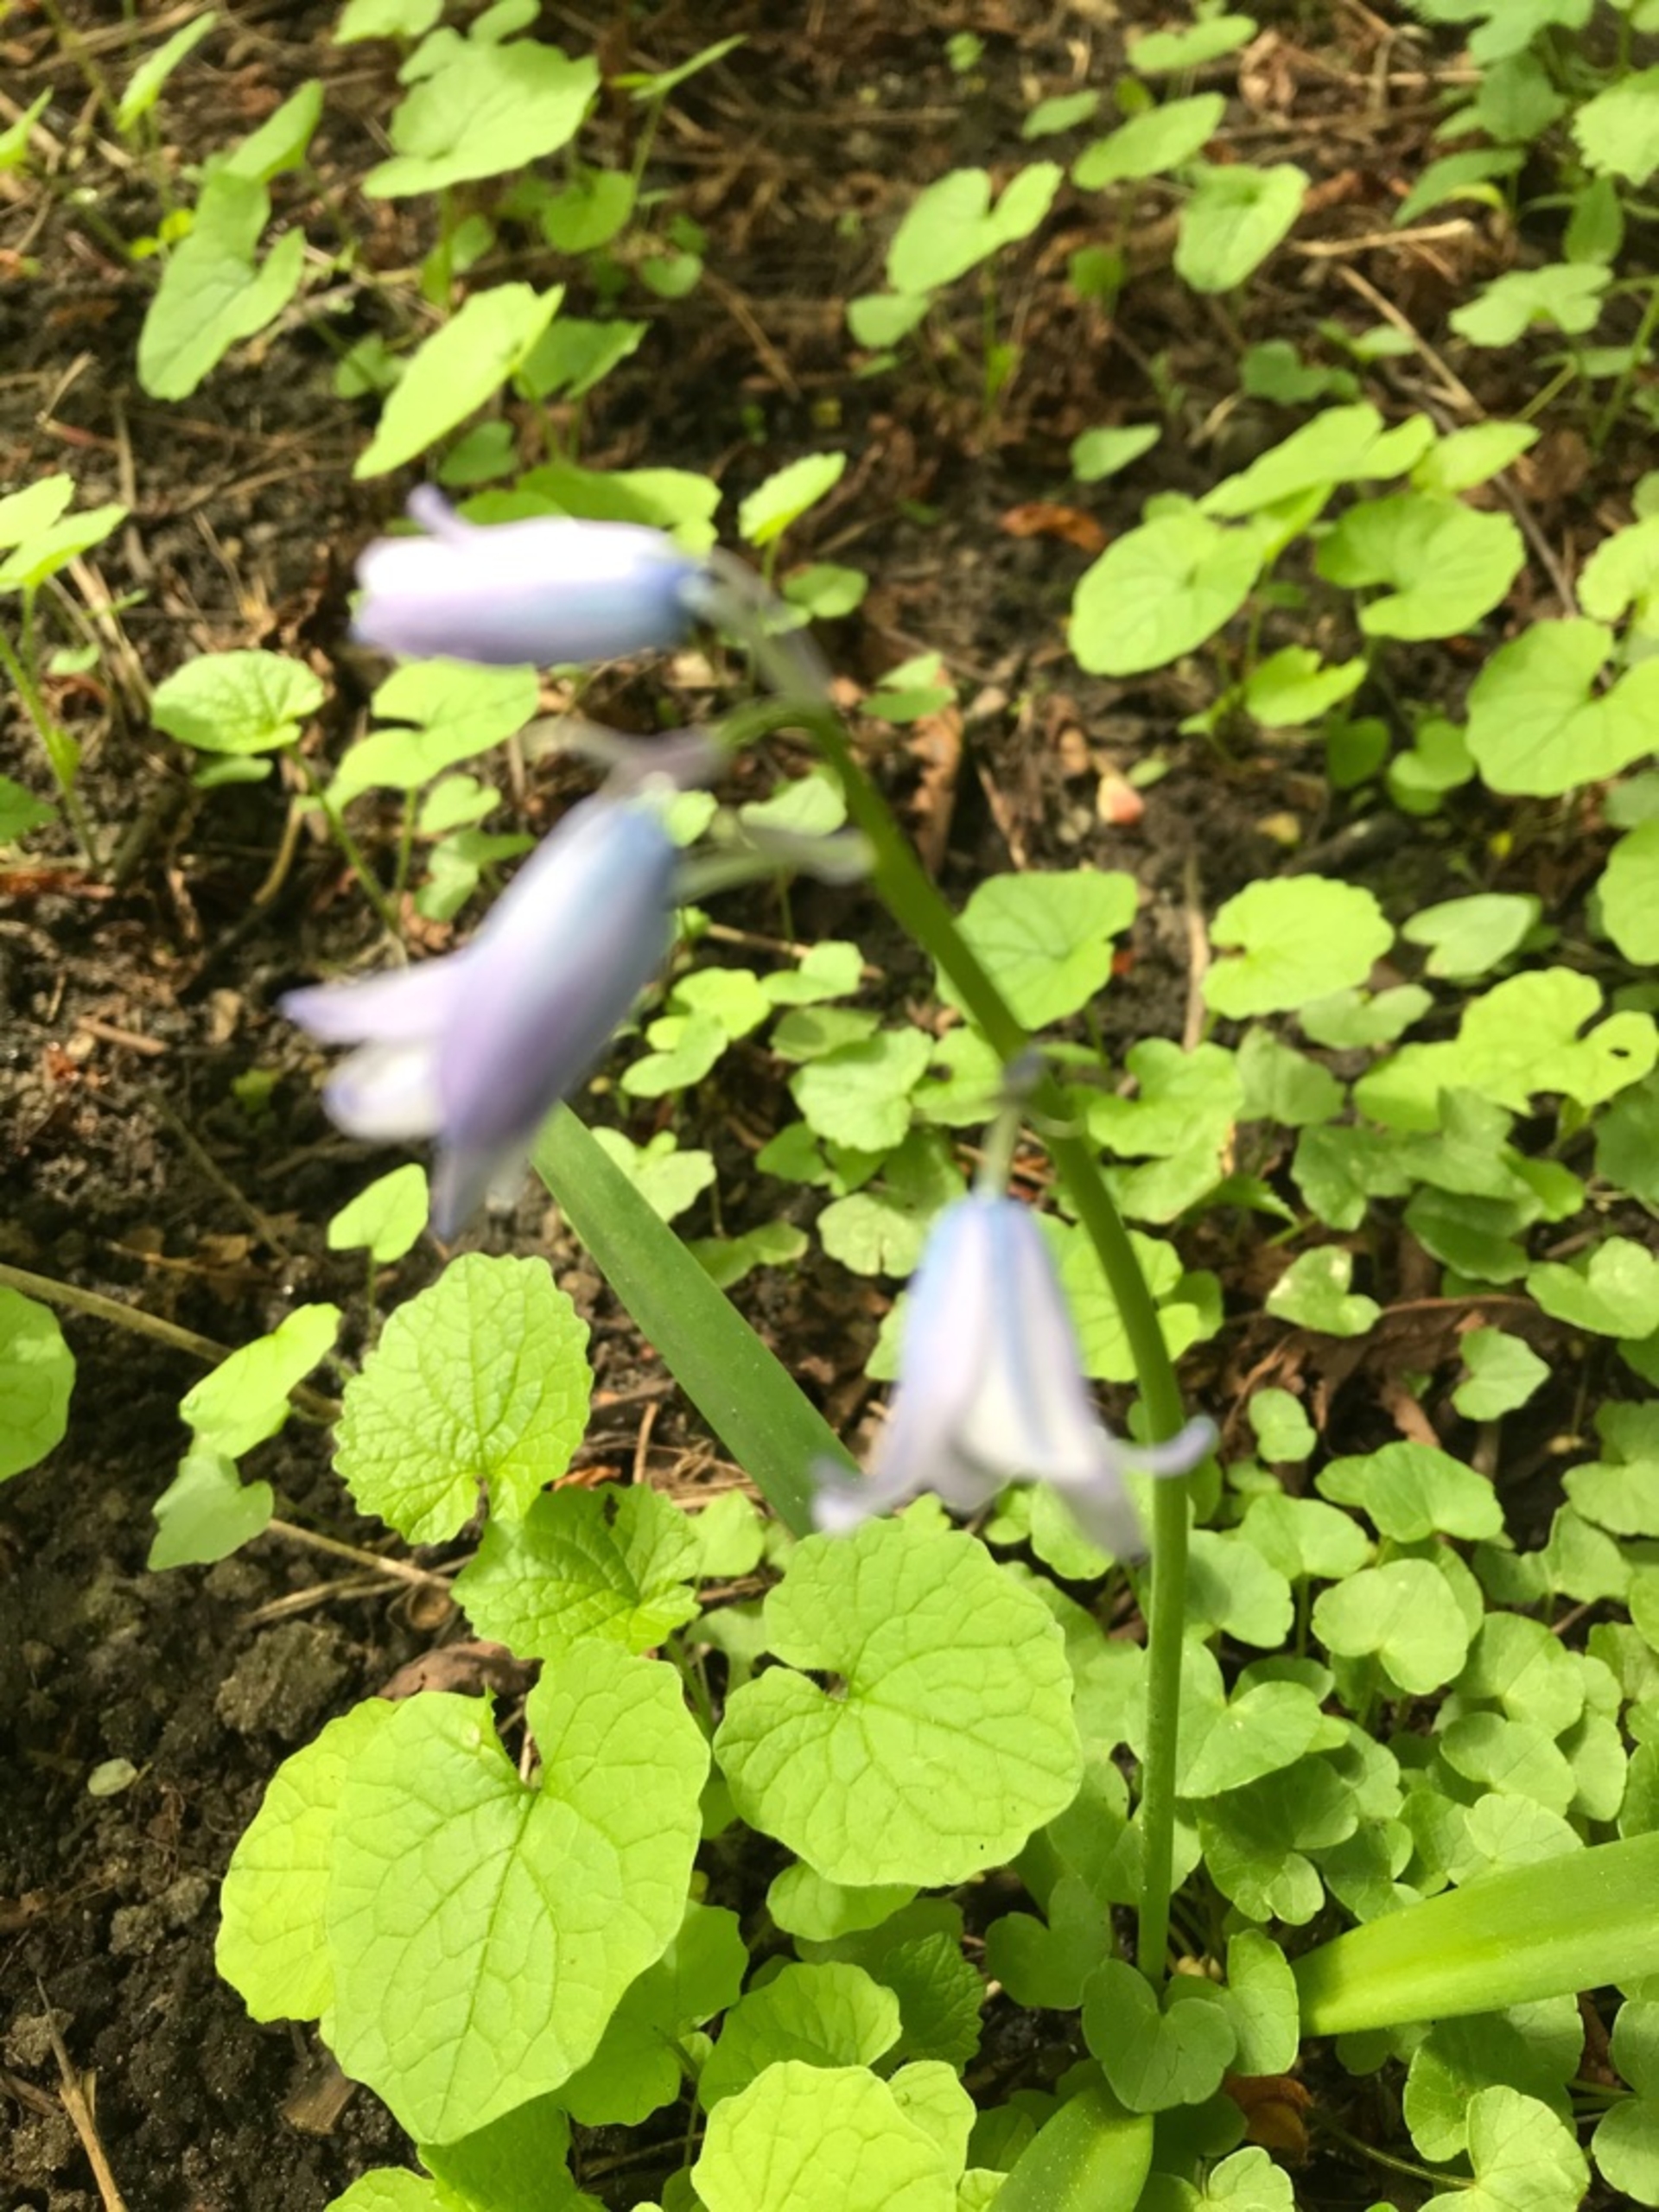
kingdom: Plantae
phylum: Tracheophyta
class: Liliopsida
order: Asparagales
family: Asparagaceae
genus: Hyacinthoides
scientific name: Hyacinthoides massartiana
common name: Hybrid-klokkeskilla
